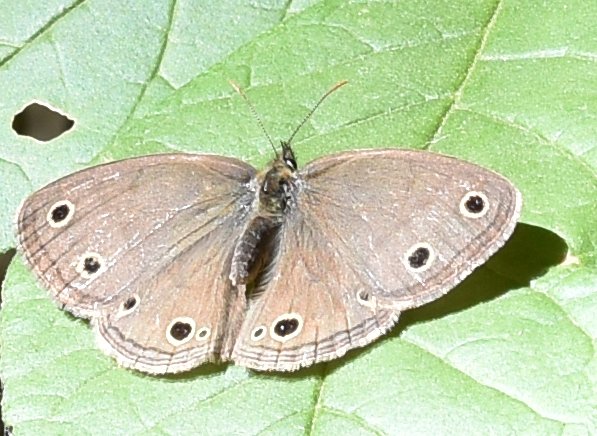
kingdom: Animalia
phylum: Arthropoda
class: Insecta
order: Lepidoptera
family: Nymphalidae
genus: Euptychia
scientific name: Euptychia cymela
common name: Little Wood Satyr
